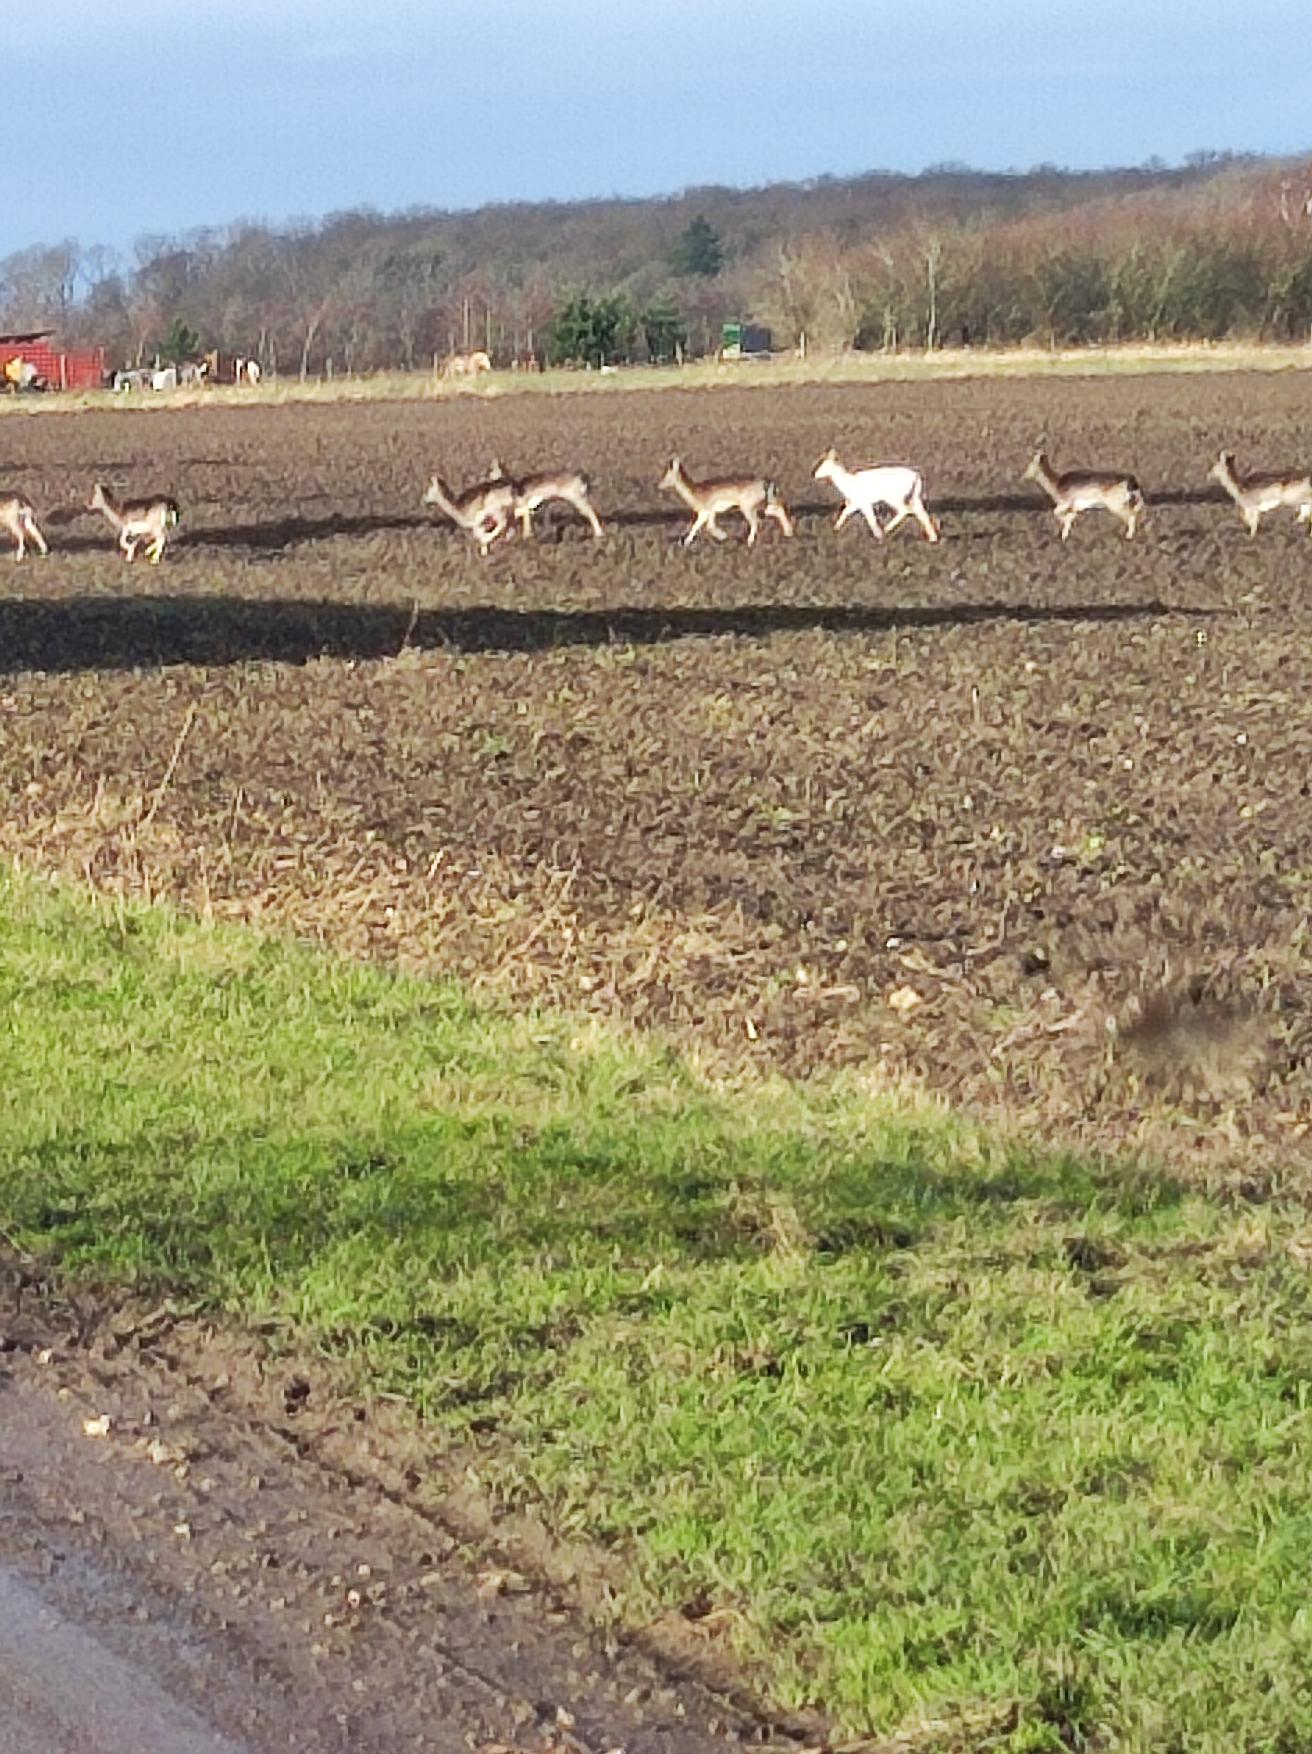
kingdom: Animalia
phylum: Chordata
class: Mammalia
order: Artiodactyla
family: Cervidae
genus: Dama
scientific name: Dama dama
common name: Dådyr
